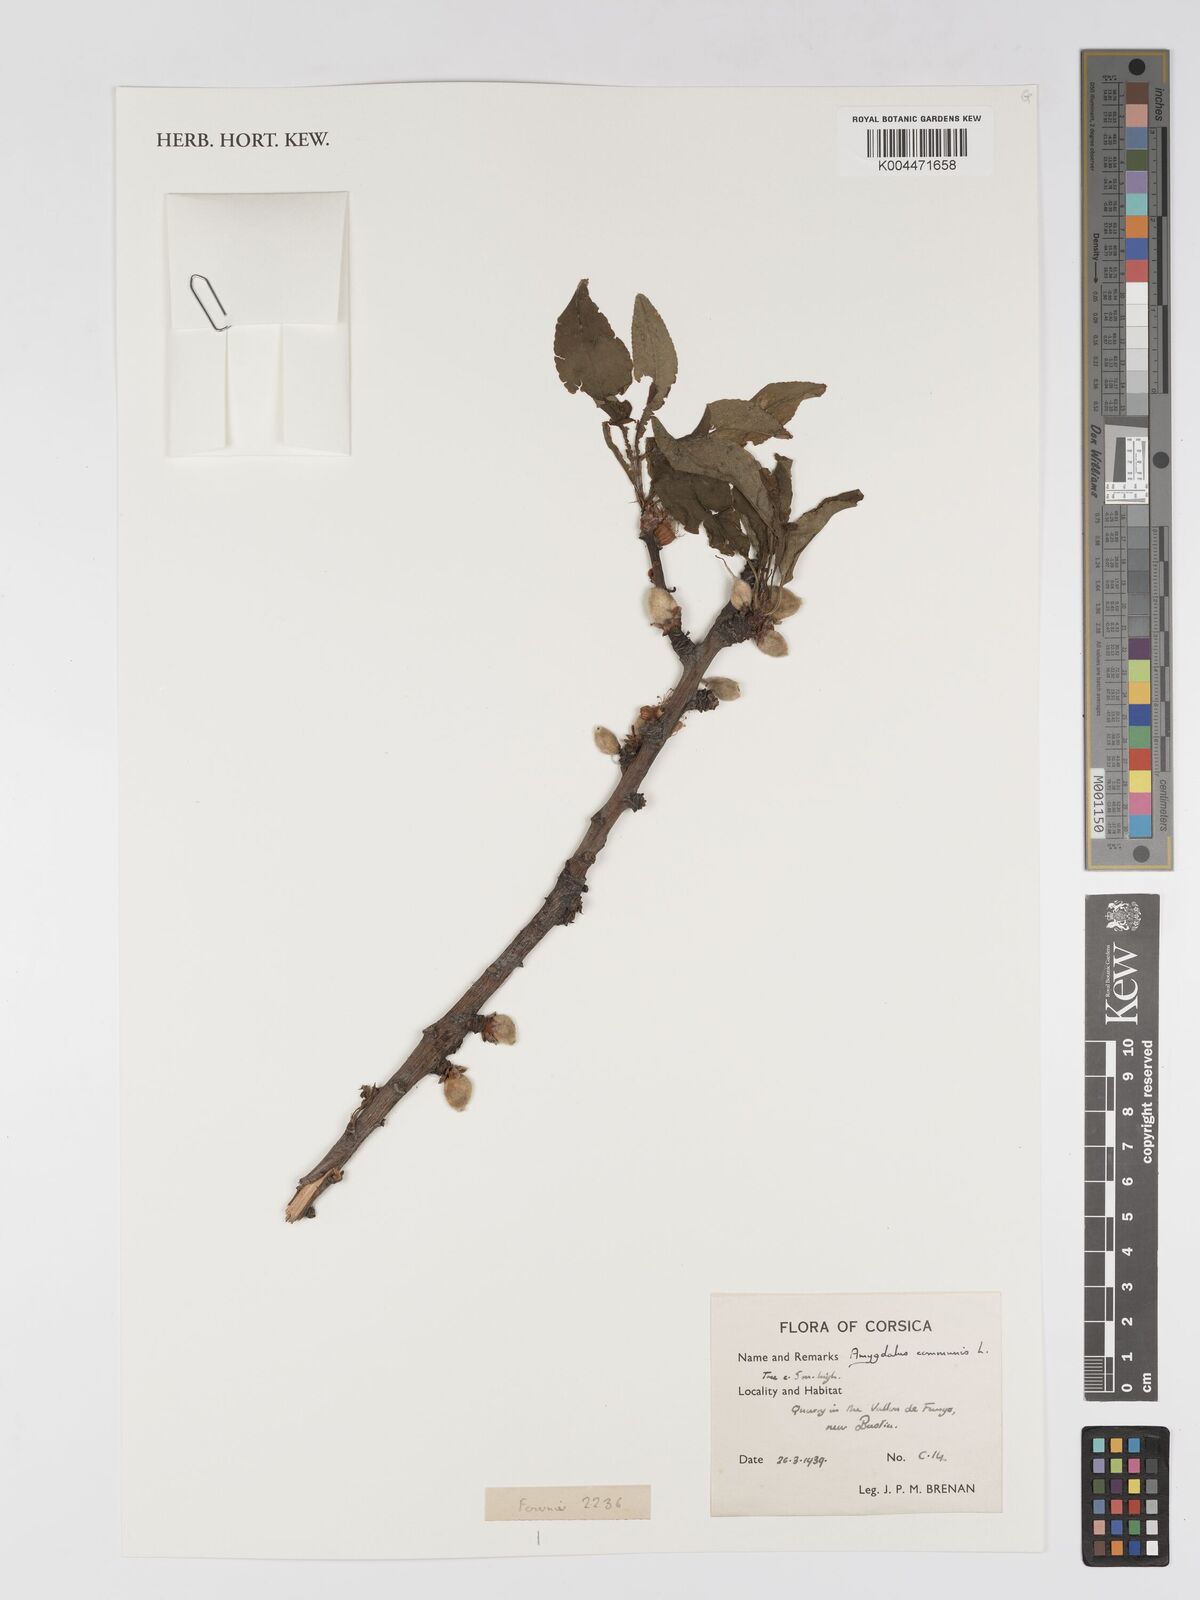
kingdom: Plantae
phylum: Tracheophyta
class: Magnoliopsida
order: Rosales
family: Rosaceae
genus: Prunus
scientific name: Prunus amygdalus
